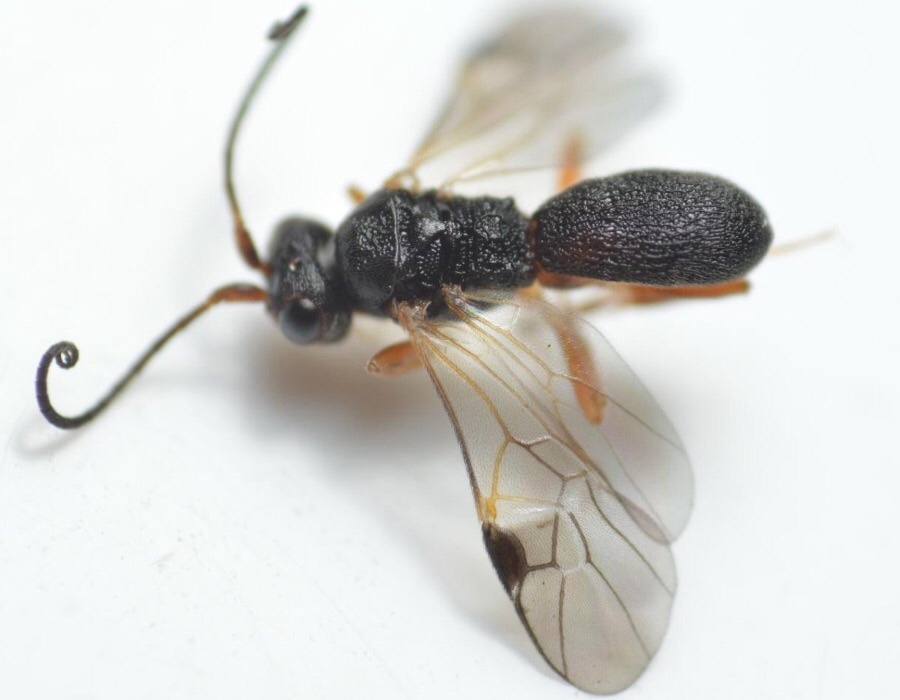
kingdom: Animalia
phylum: Arthropoda
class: Insecta
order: Hymenoptera
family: Braconidae
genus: Ascogaster
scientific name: Ascogaster
